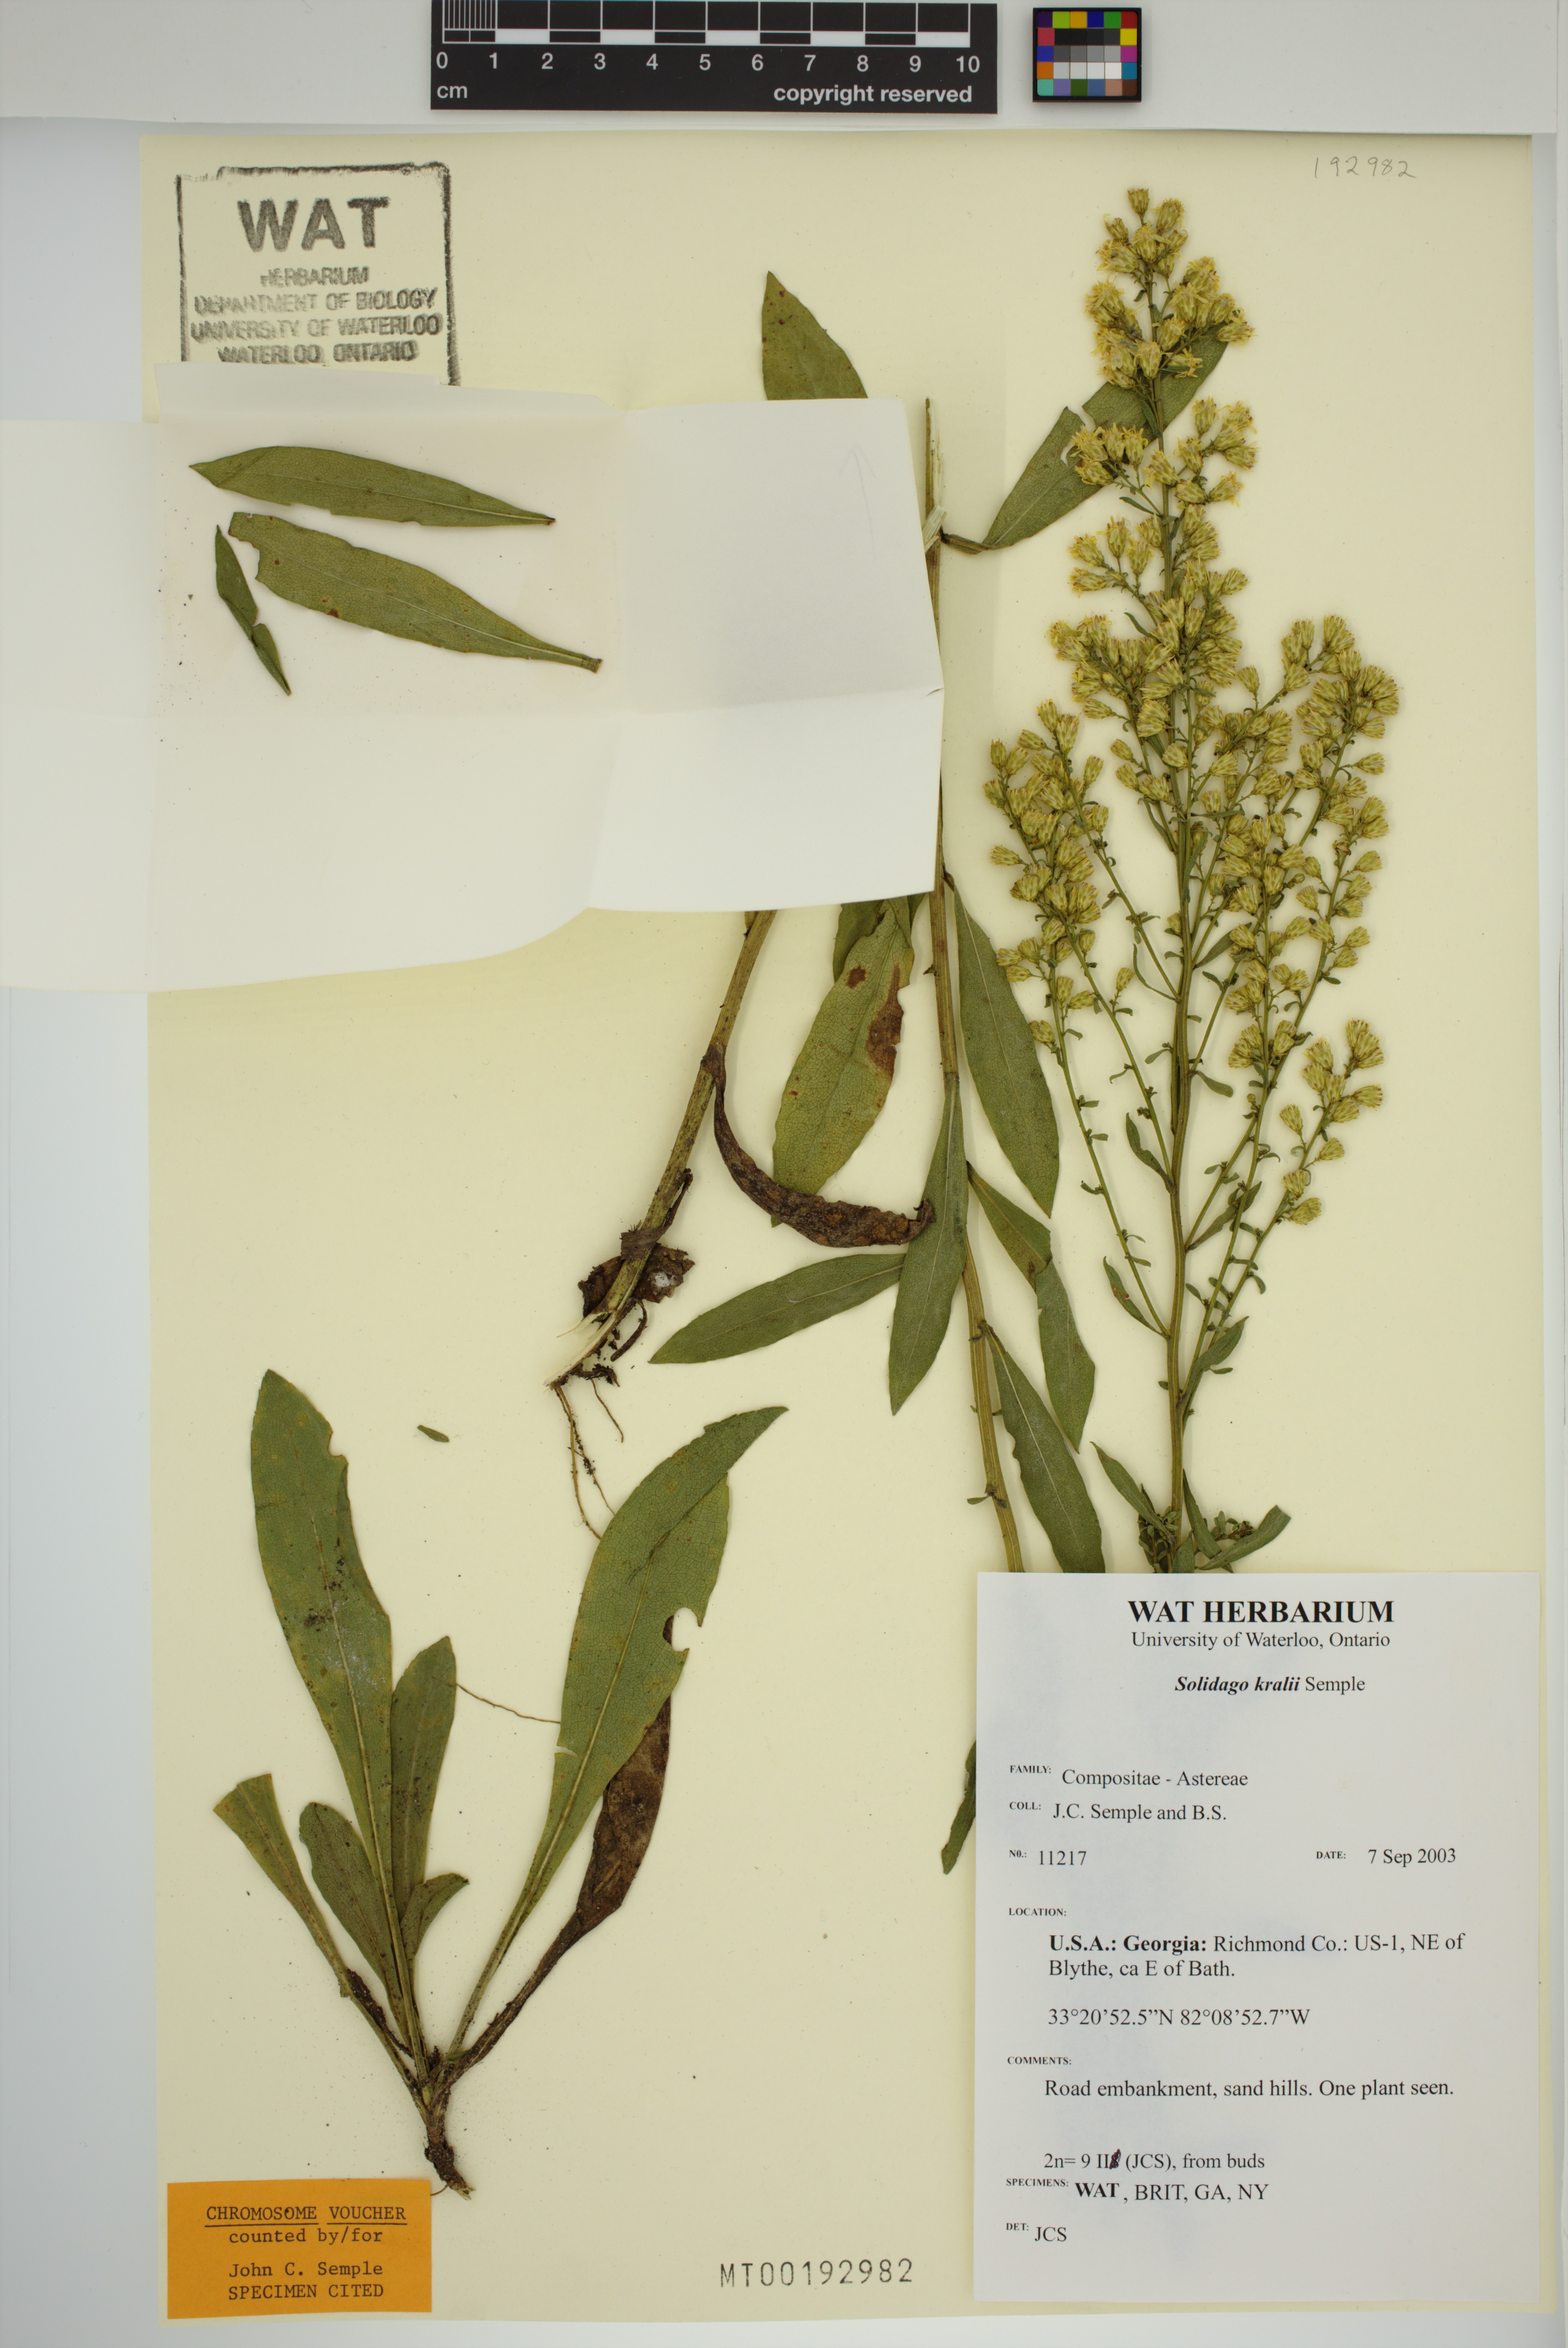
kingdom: Plantae
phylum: Tracheophyta
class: Magnoliopsida
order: Asterales
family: Asteraceae
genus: Solidago
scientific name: Solidago kralii
